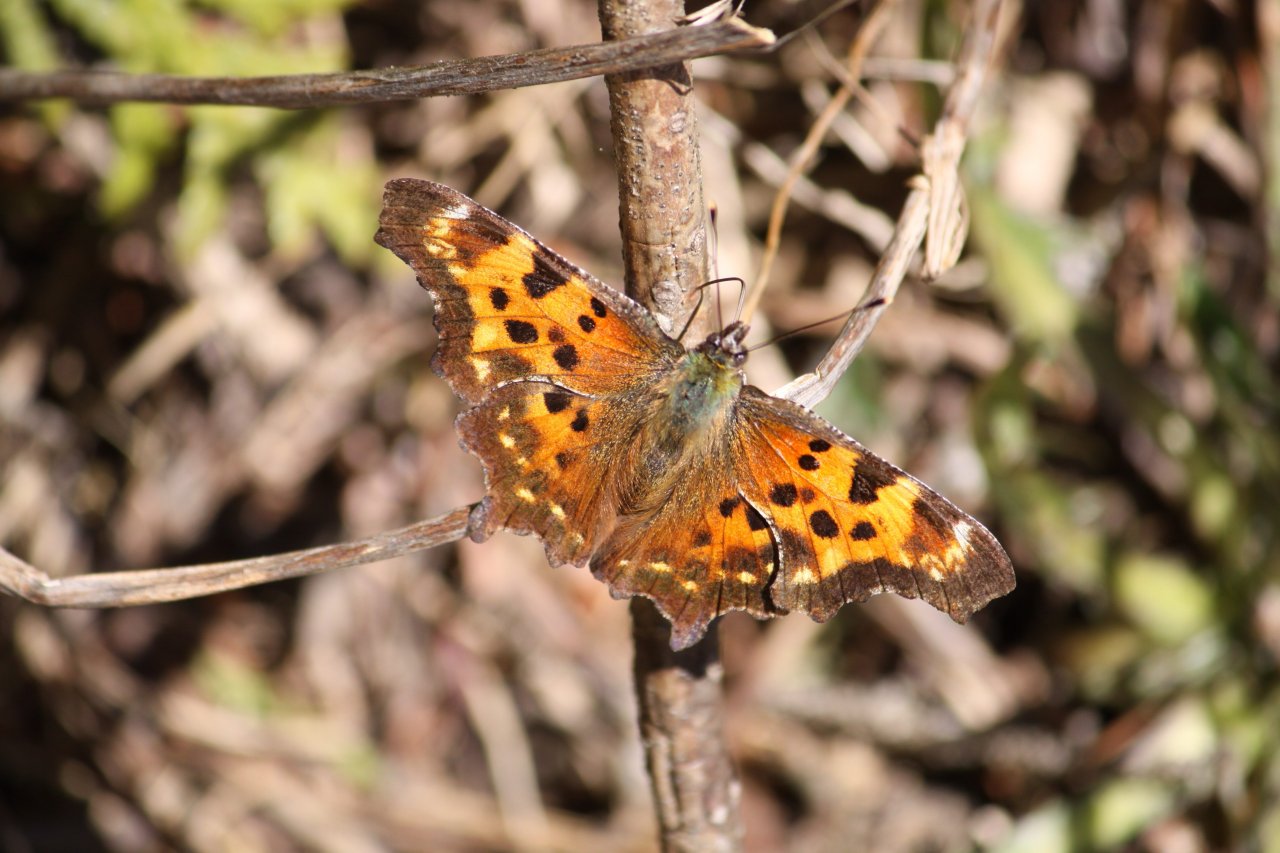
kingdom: Animalia
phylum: Arthropoda
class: Insecta
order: Lepidoptera
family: Nymphalidae
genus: Polygonia
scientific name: Polygonia faunus
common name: Green Comma
